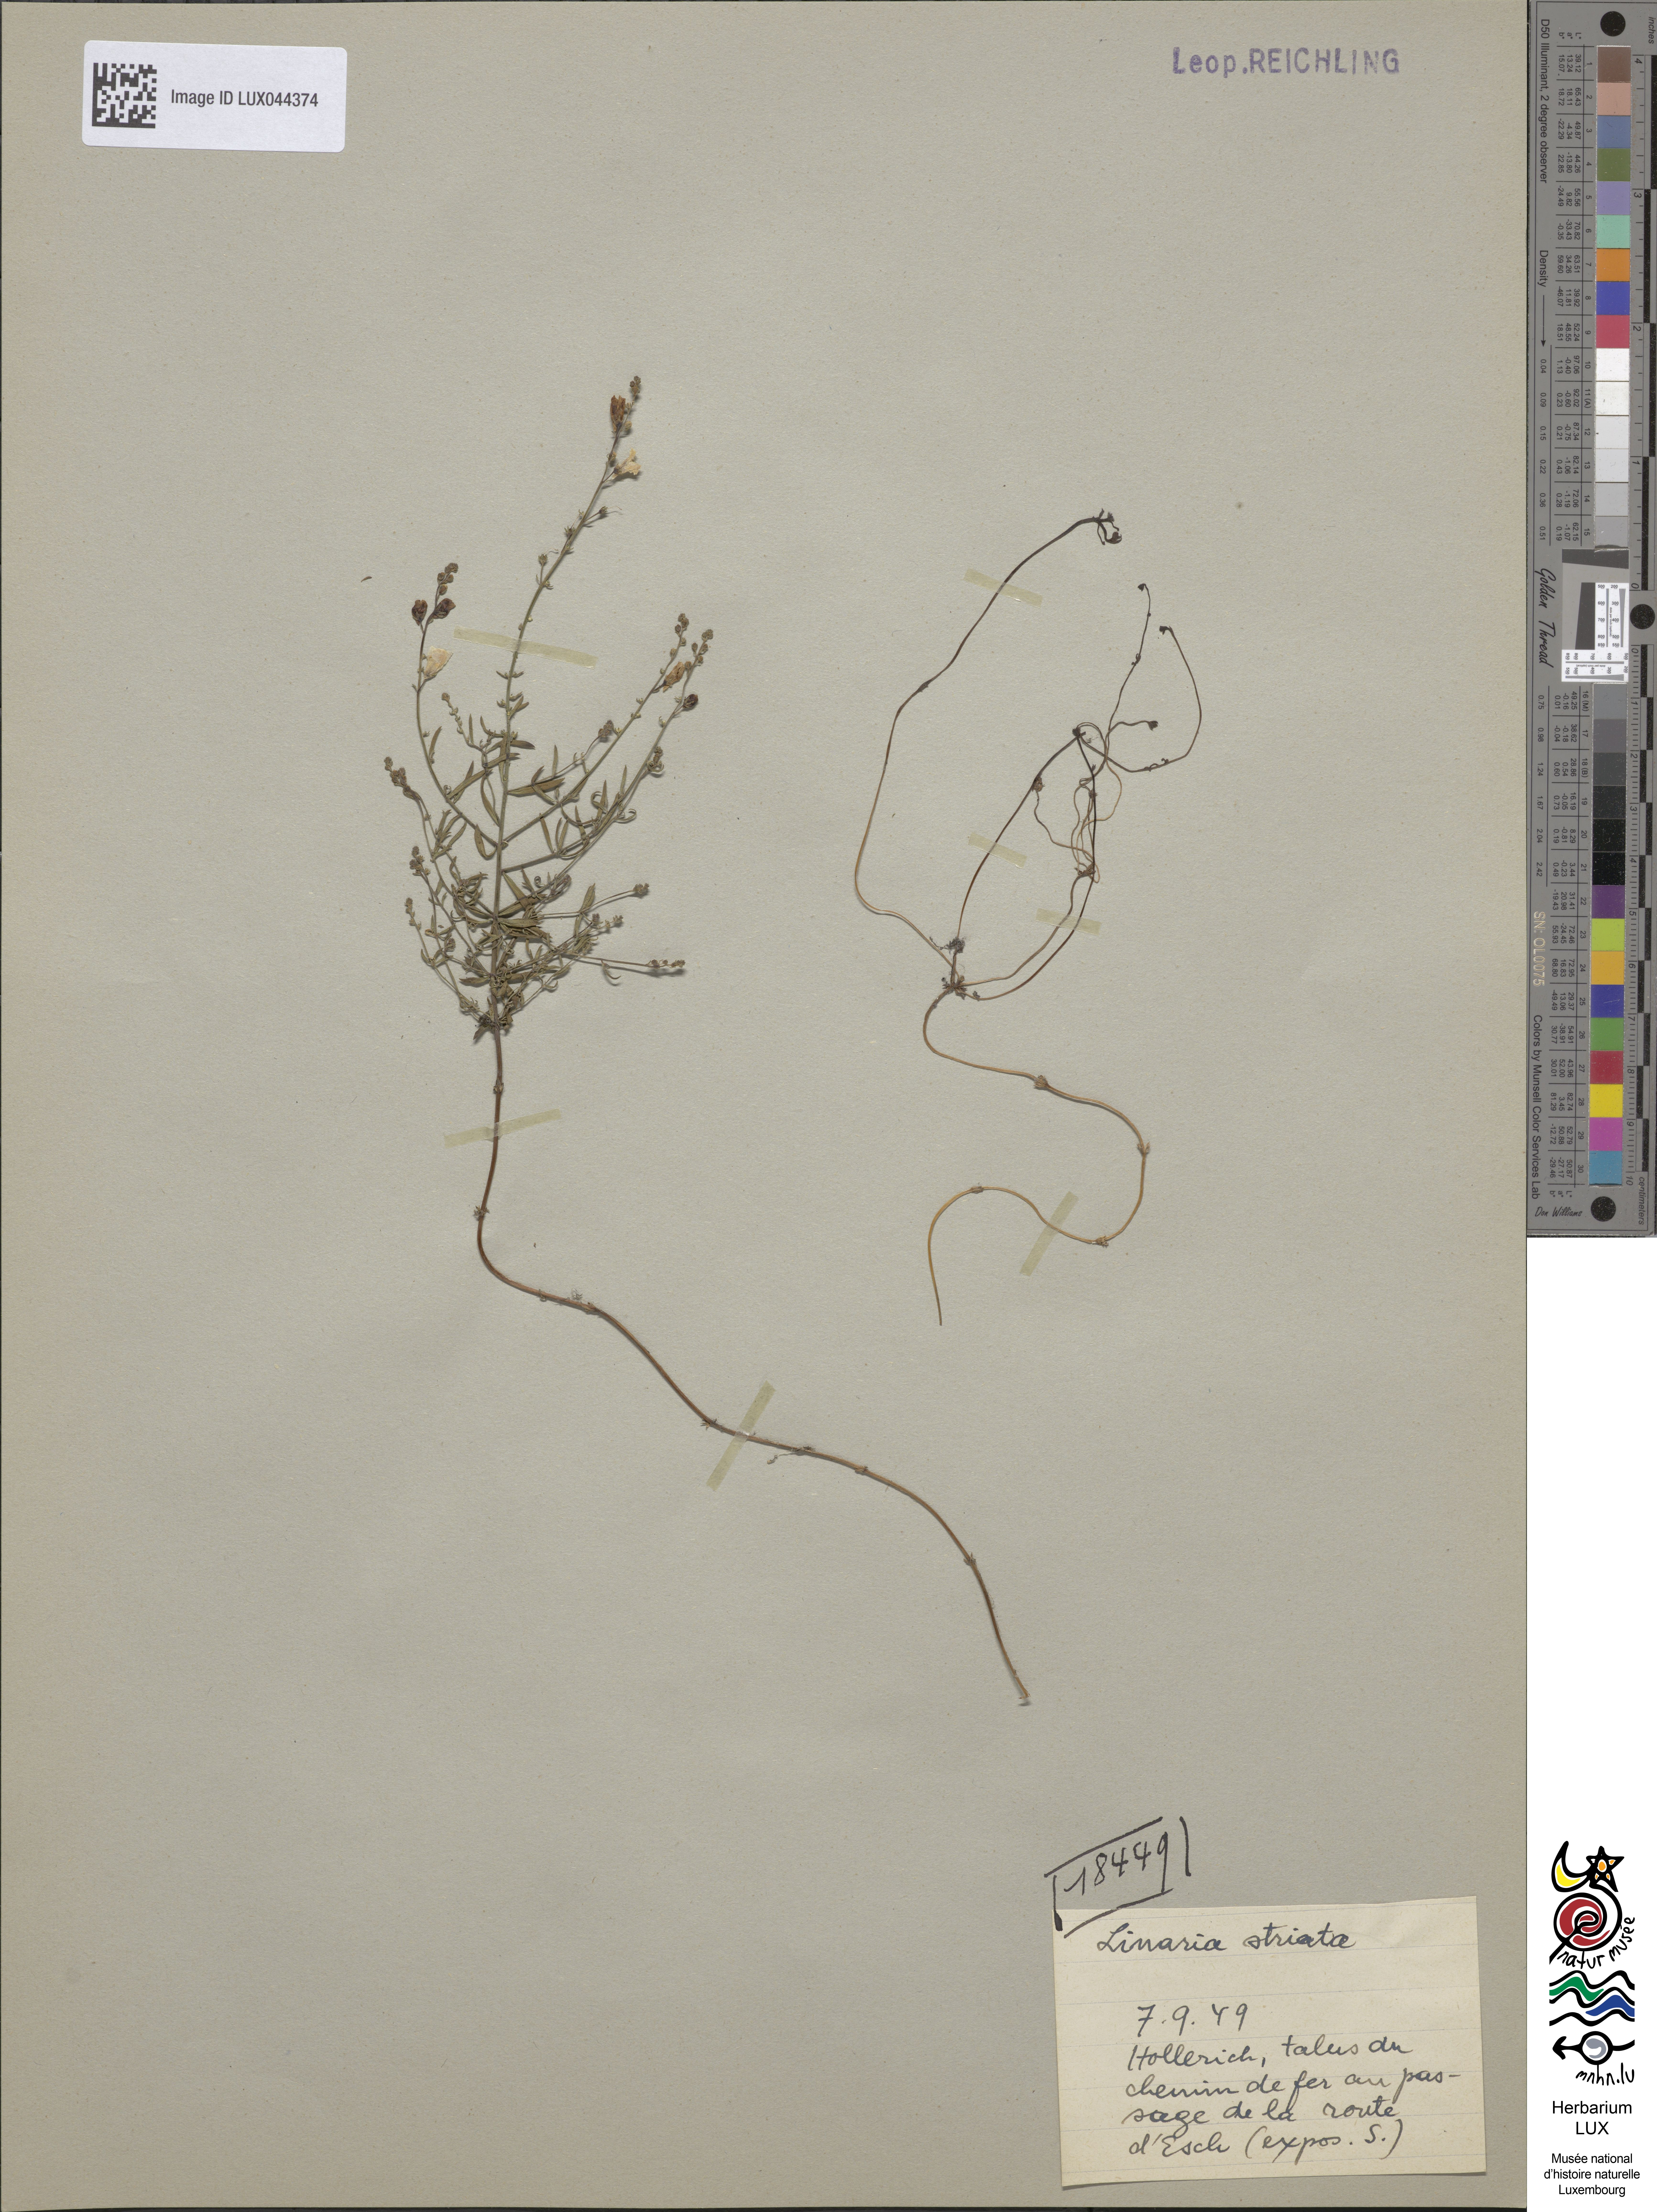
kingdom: Plantae
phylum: Tracheophyta
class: Magnoliopsida
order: Lamiales
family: Plantaginaceae
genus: Linaria
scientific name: Linaria repens
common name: Pale toadflax
